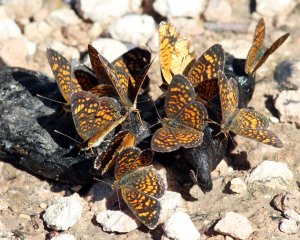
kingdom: Animalia
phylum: Arthropoda
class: Insecta
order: Lepidoptera
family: Nymphalidae
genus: Phyciodes
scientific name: Phyciodes vesta
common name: Vesta Crescent
